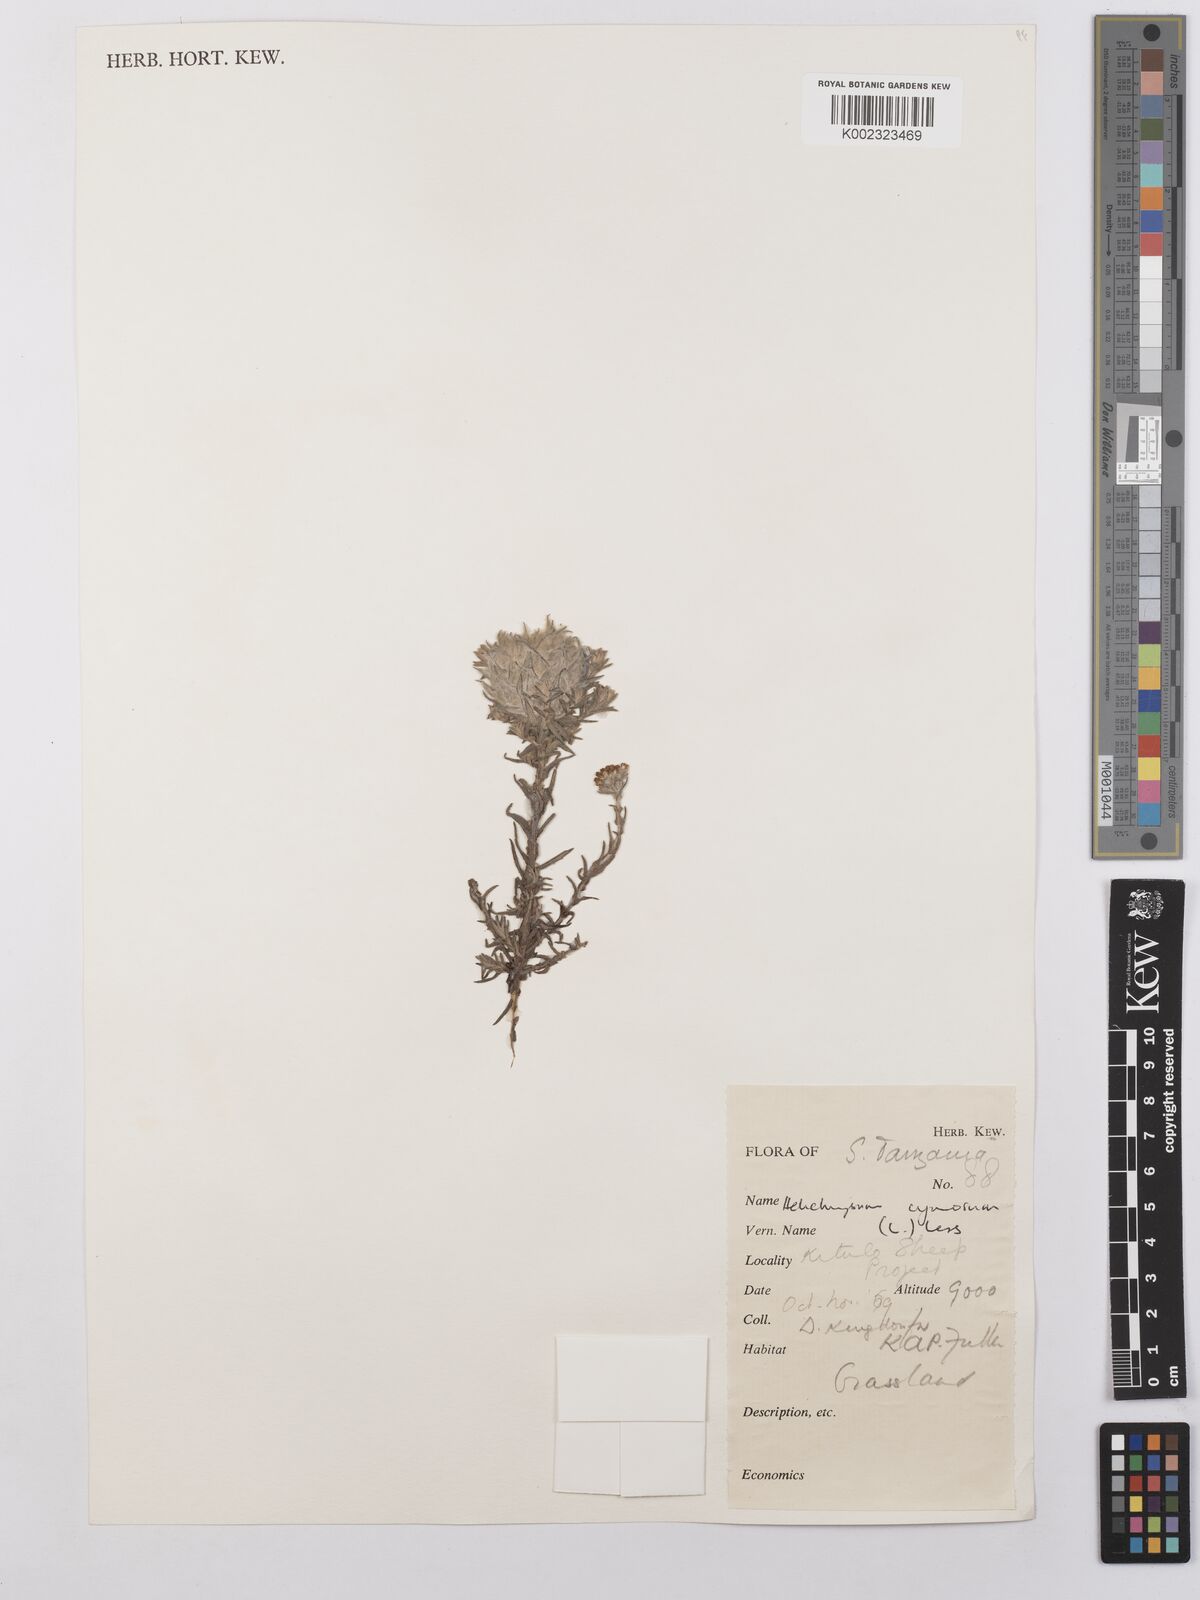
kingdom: Plantae
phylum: Tracheophyta
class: Magnoliopsida
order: Asterales
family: Asteraceae
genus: Helichrysum
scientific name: Helichrysum forskahlii
